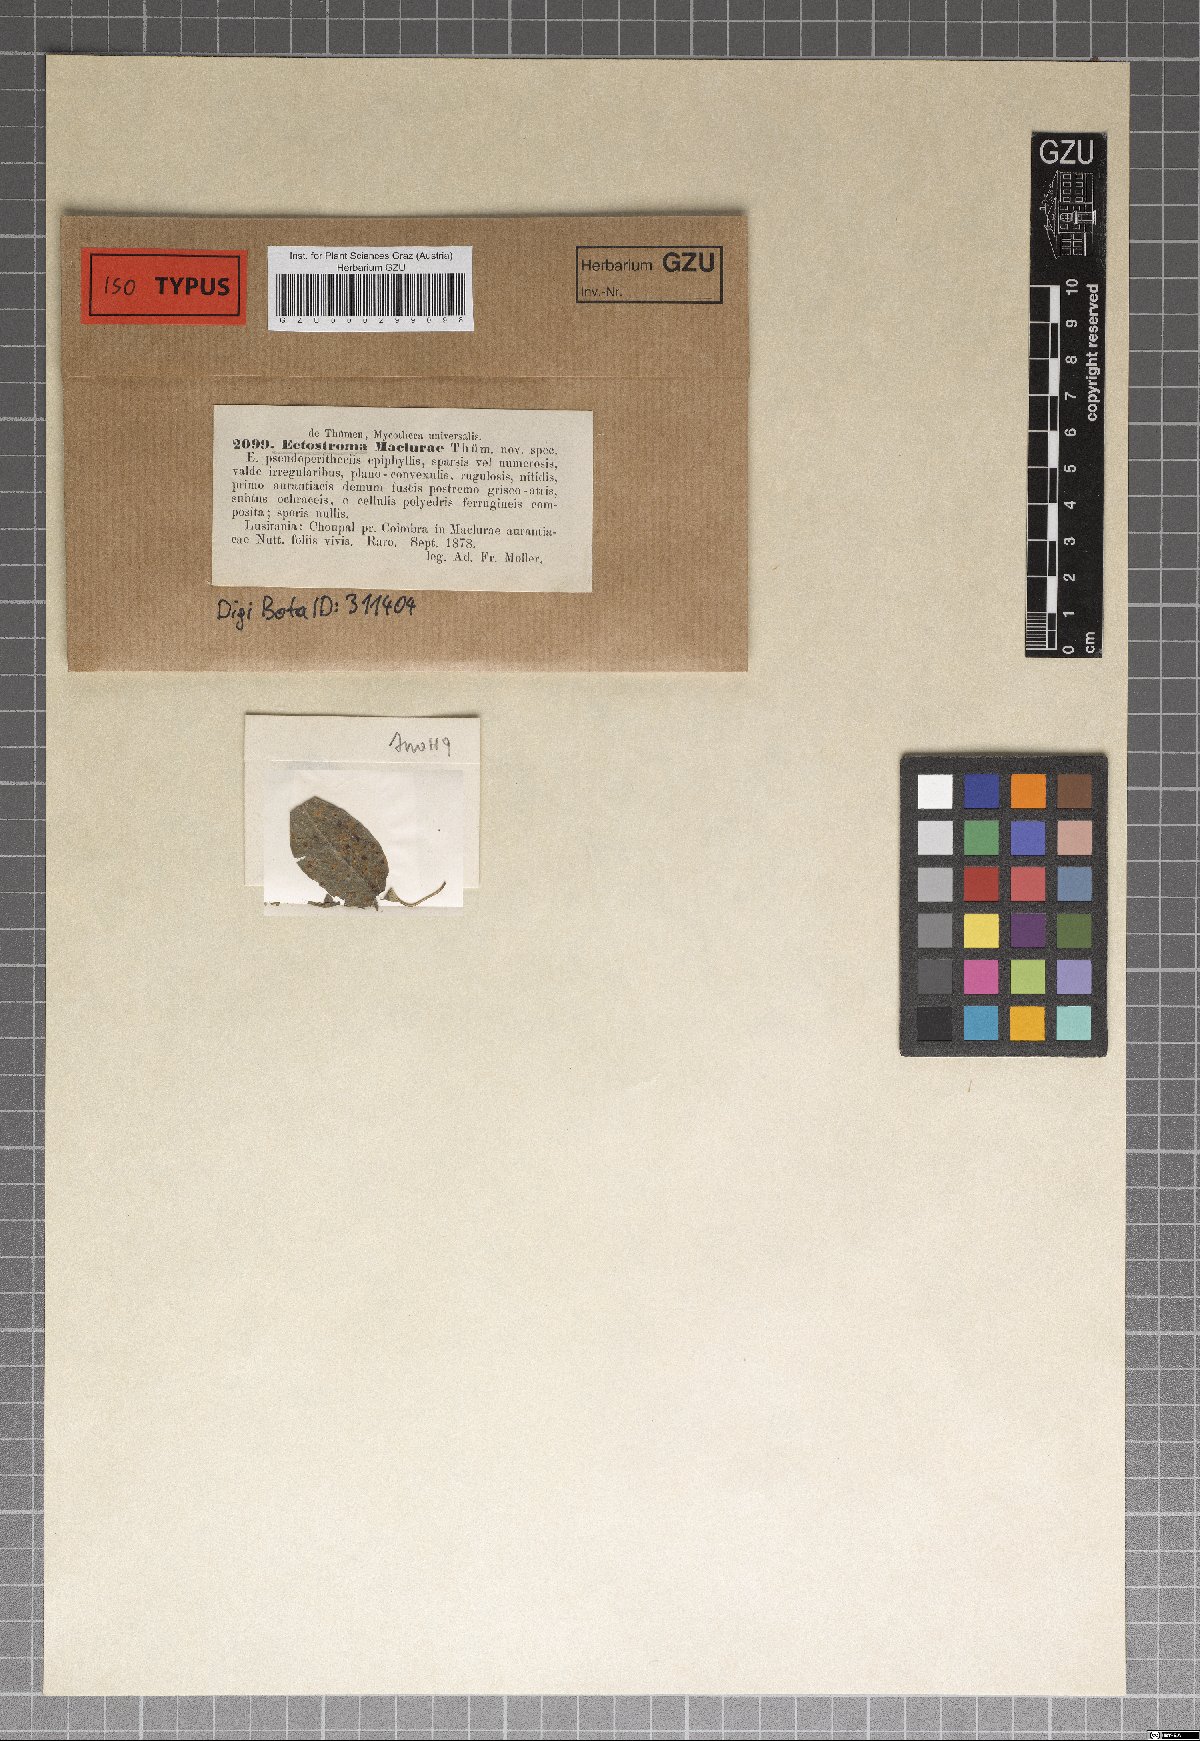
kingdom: Fungi
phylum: Ascomycota
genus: Ectostroma
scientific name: Ectostroma
